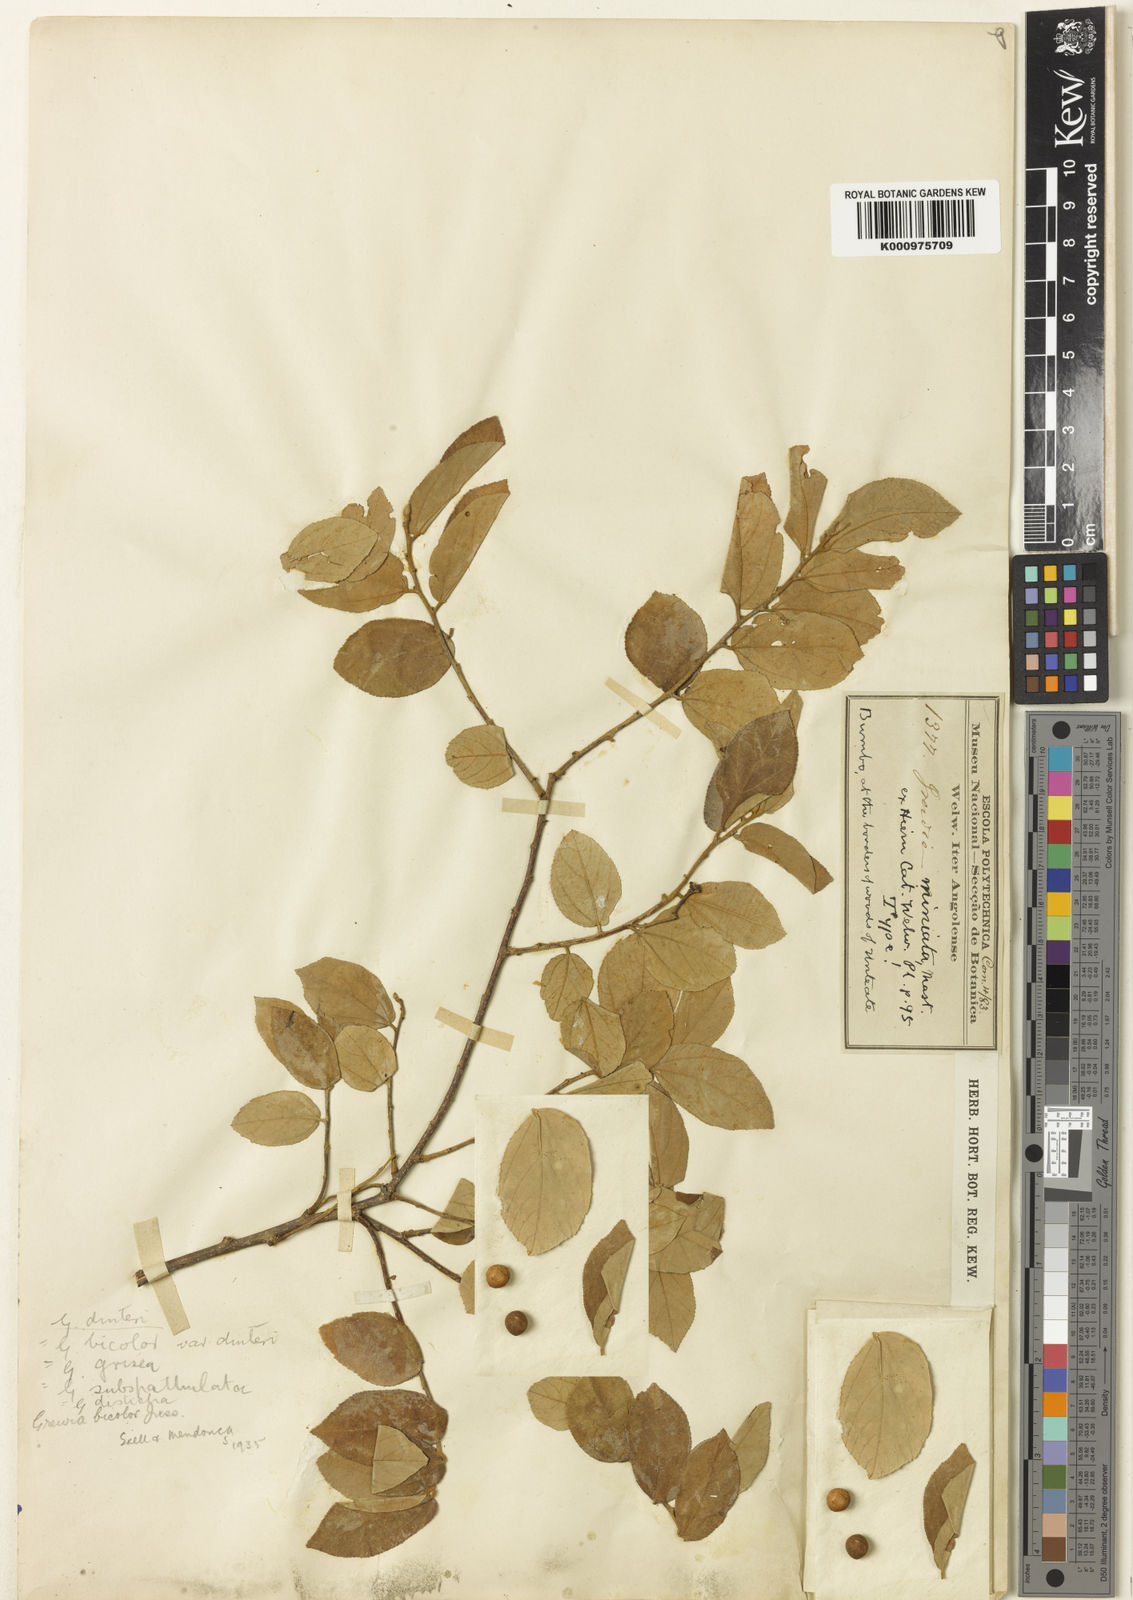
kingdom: Plantae
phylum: Tracheophyta
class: Magnoliopsida
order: Malvales
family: Malvaceae
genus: Grewia
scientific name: Grewia bicolor
